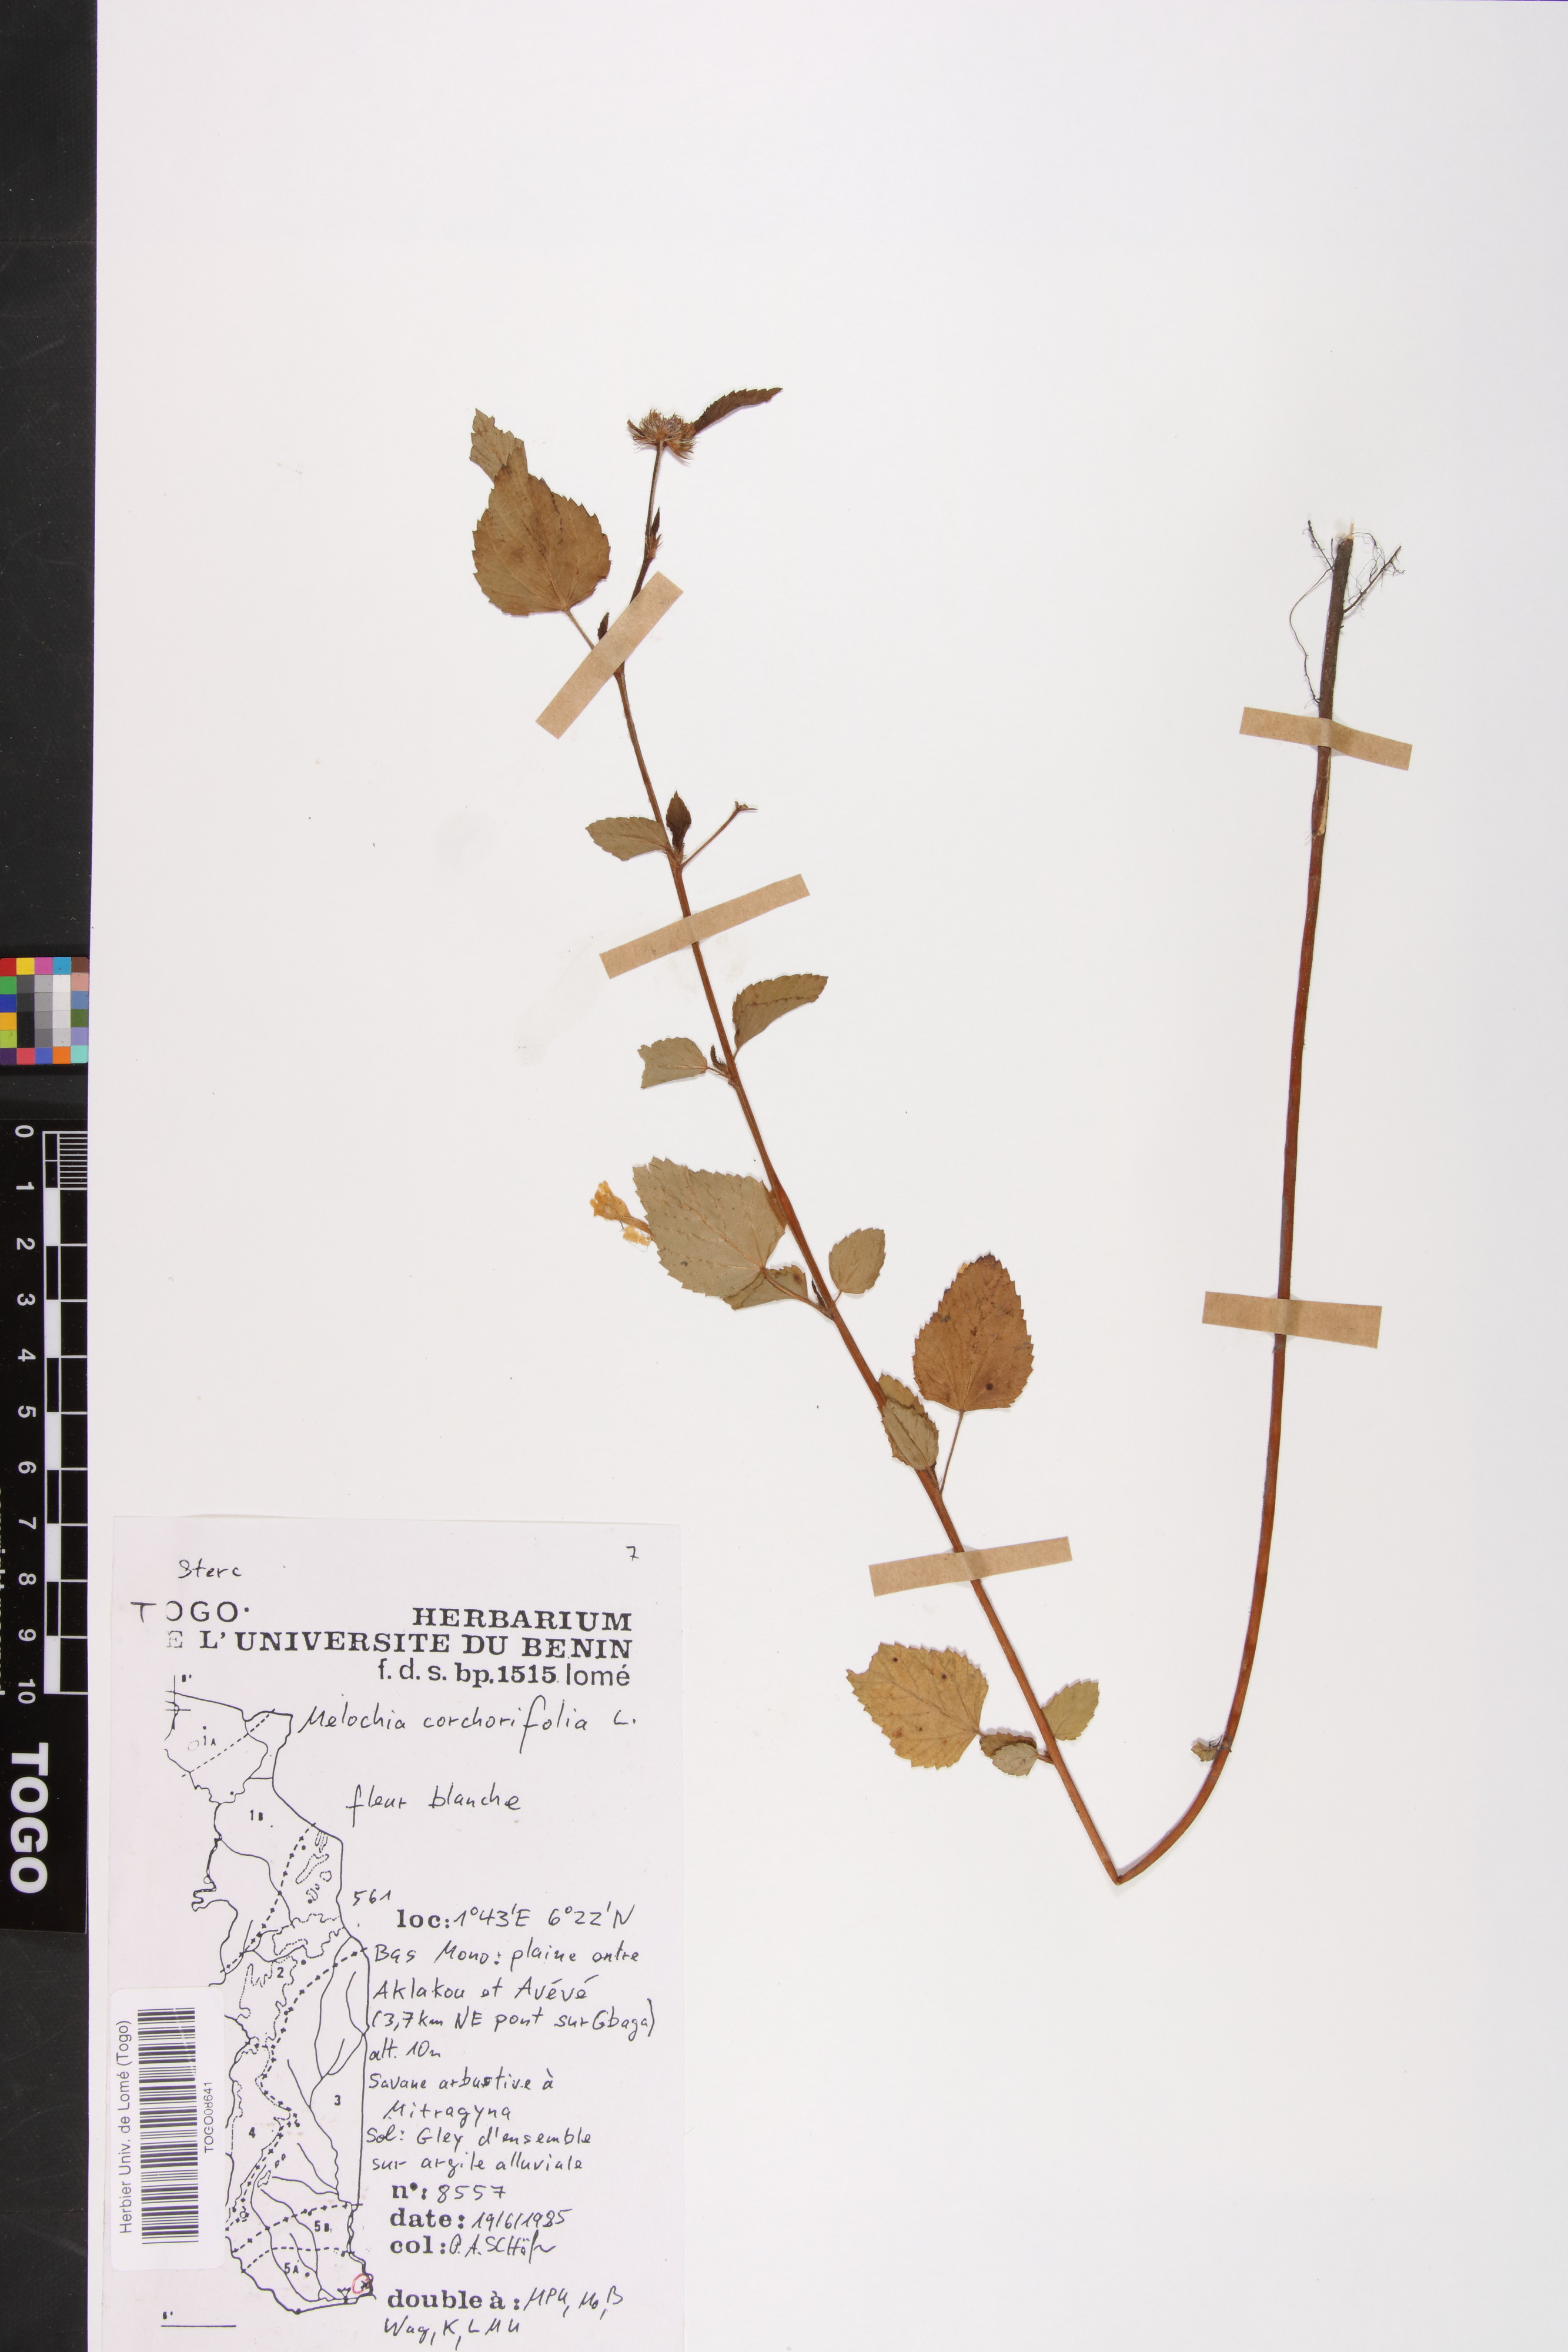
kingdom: Plantae
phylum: Tracheophyta
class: Magnoliopsida
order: Malvales
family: Malvaceae
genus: Melochia
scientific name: Melochia corchorifolia
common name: Chocolateweed
